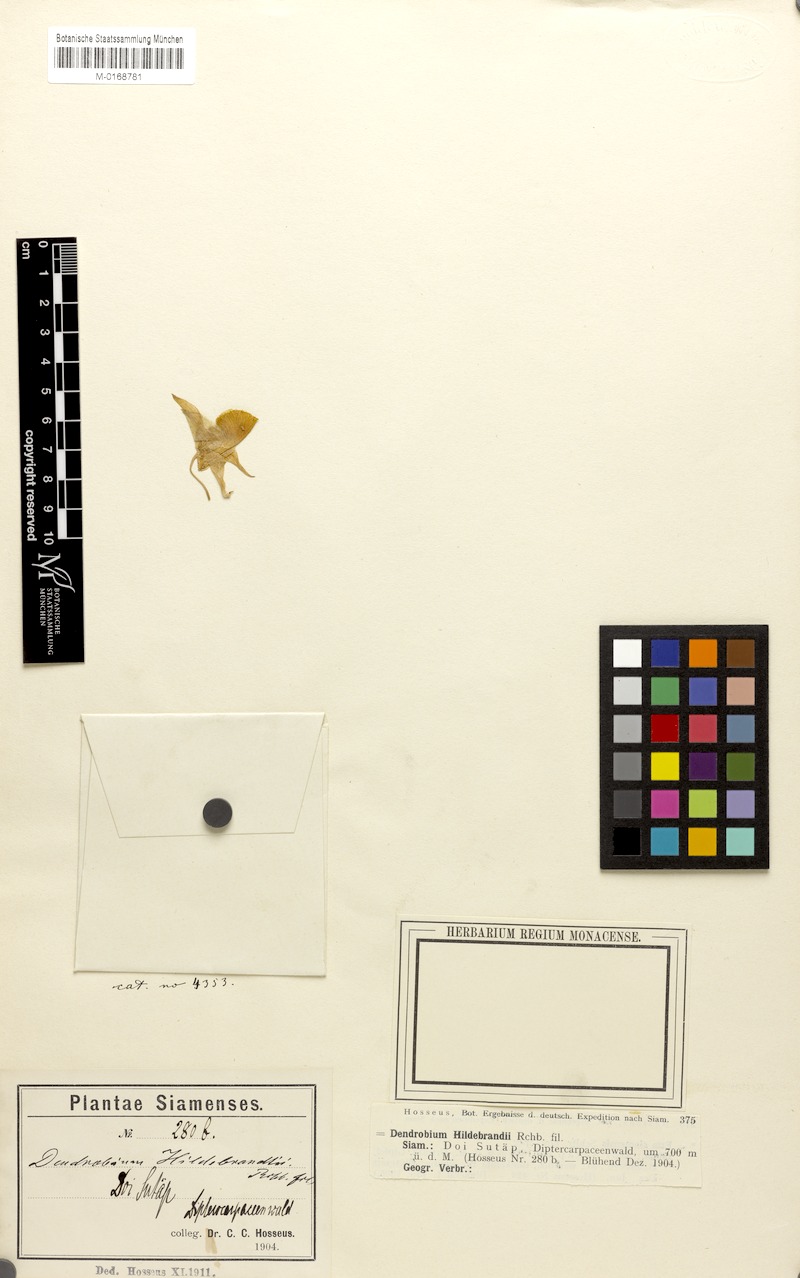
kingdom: Plantae
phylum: Tracheophyta
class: Liliopsida
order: Asparagales
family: Orchidaceae
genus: Dendrobium
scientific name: Dendrobium signatum
